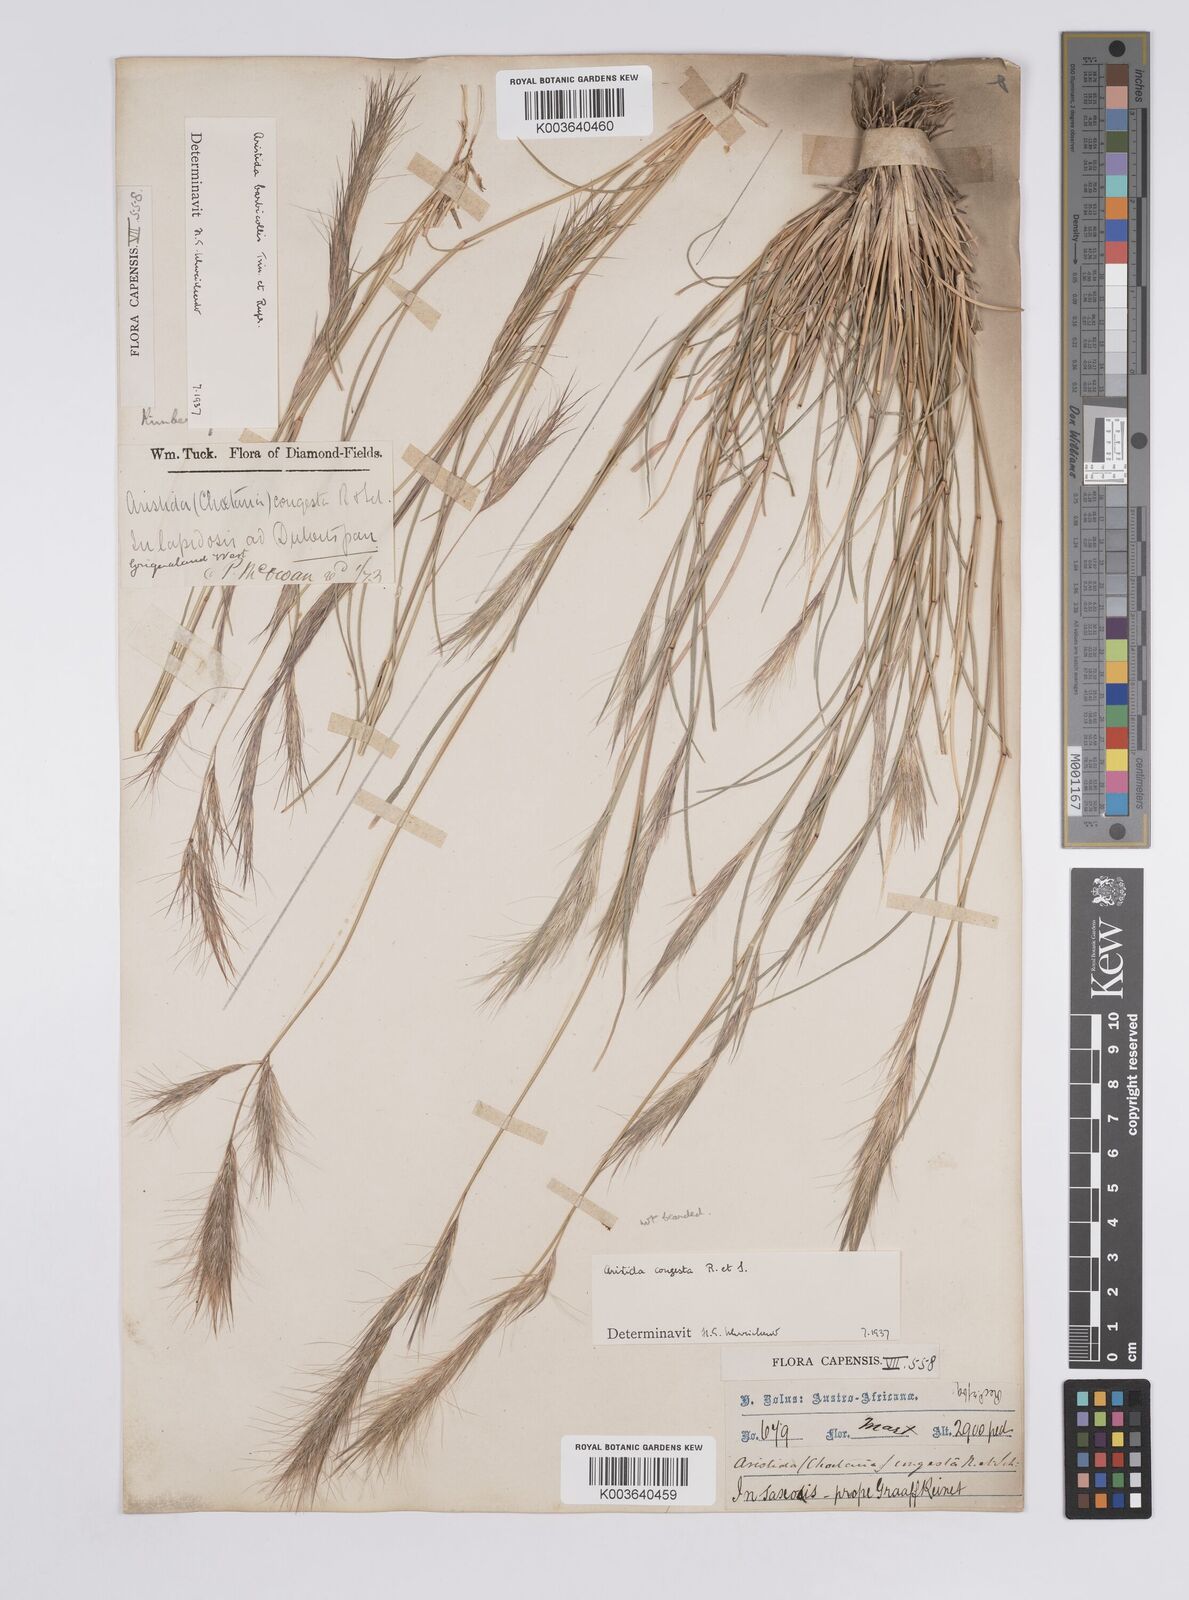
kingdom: Plantae
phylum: Tracheophyta
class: Liliopsida
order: Poales
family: Poaceae
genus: Aristida
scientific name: Aristida barbicollis
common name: Spreading prickle grass
